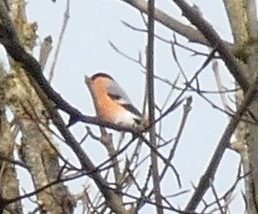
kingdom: Animalia
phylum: Chordata
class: Aves
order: Passeriformes
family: Fringillidae
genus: Pyrrhula
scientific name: Pyrrhula pyrrhula
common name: Dompap
